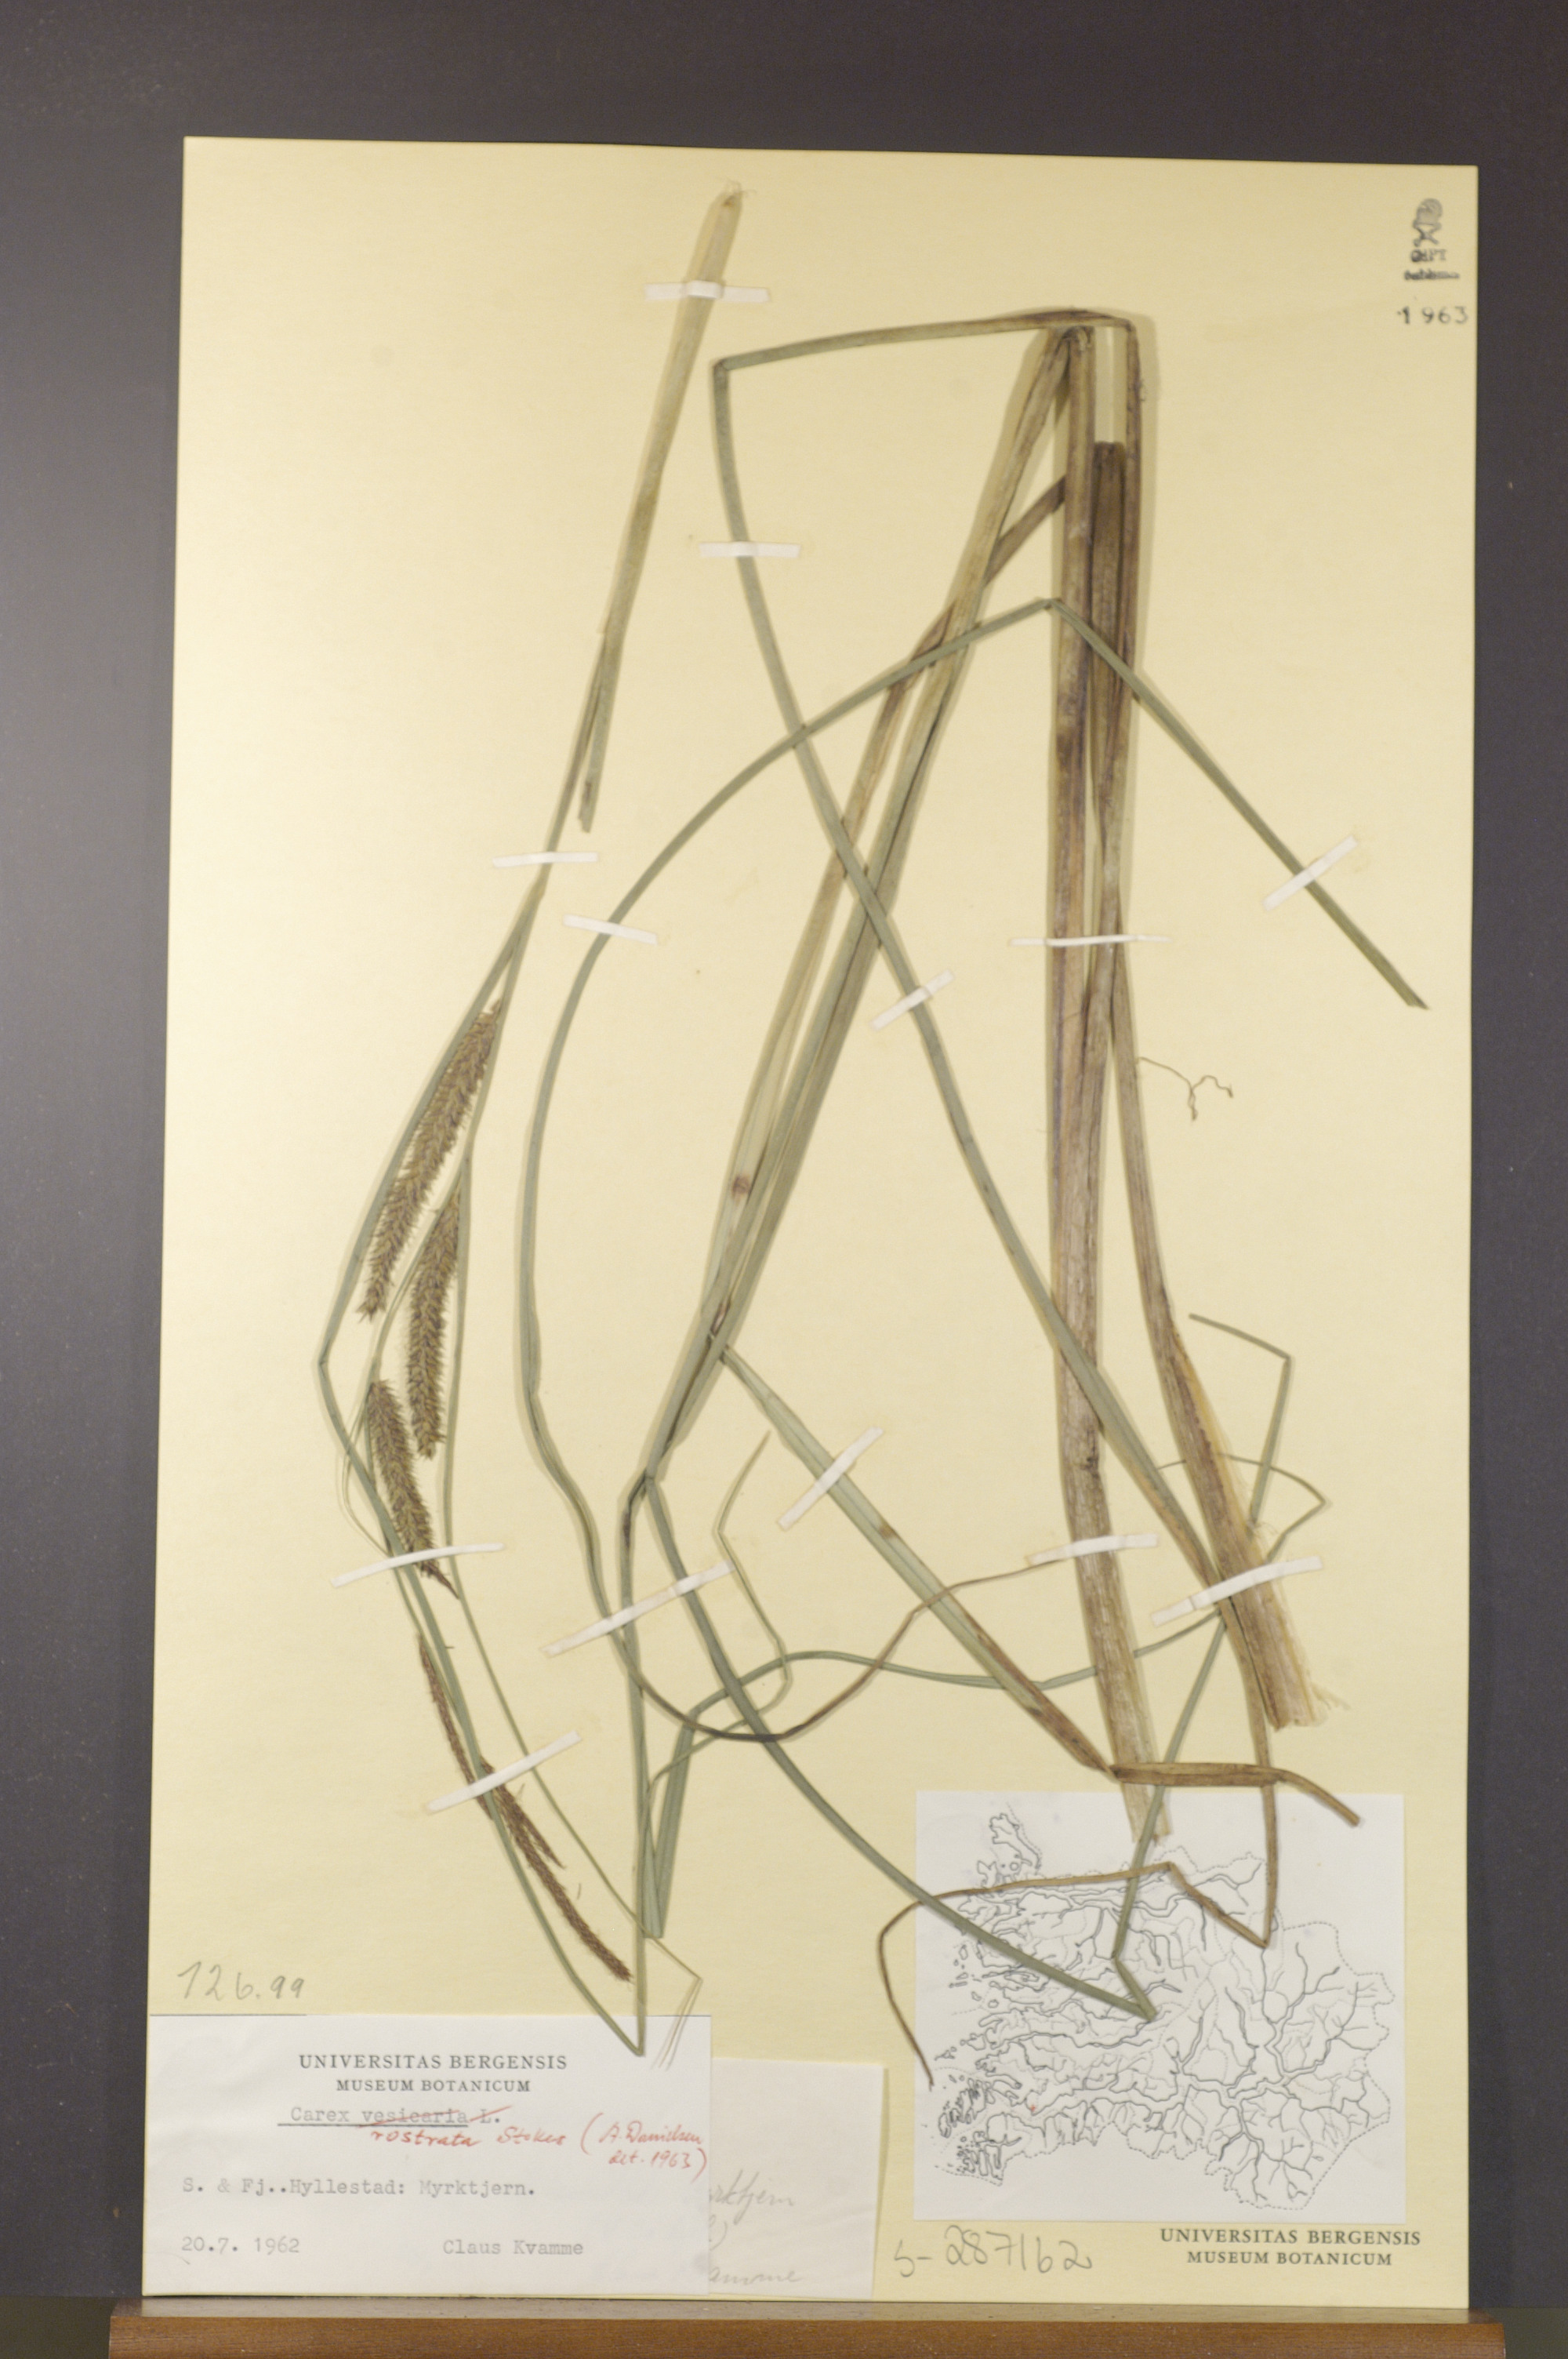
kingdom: Plantae
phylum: Tracheophyta
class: Liliopsida
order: Poales
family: Cyperaceae
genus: Carex
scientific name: Carex rostrata
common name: Bottle sedge
